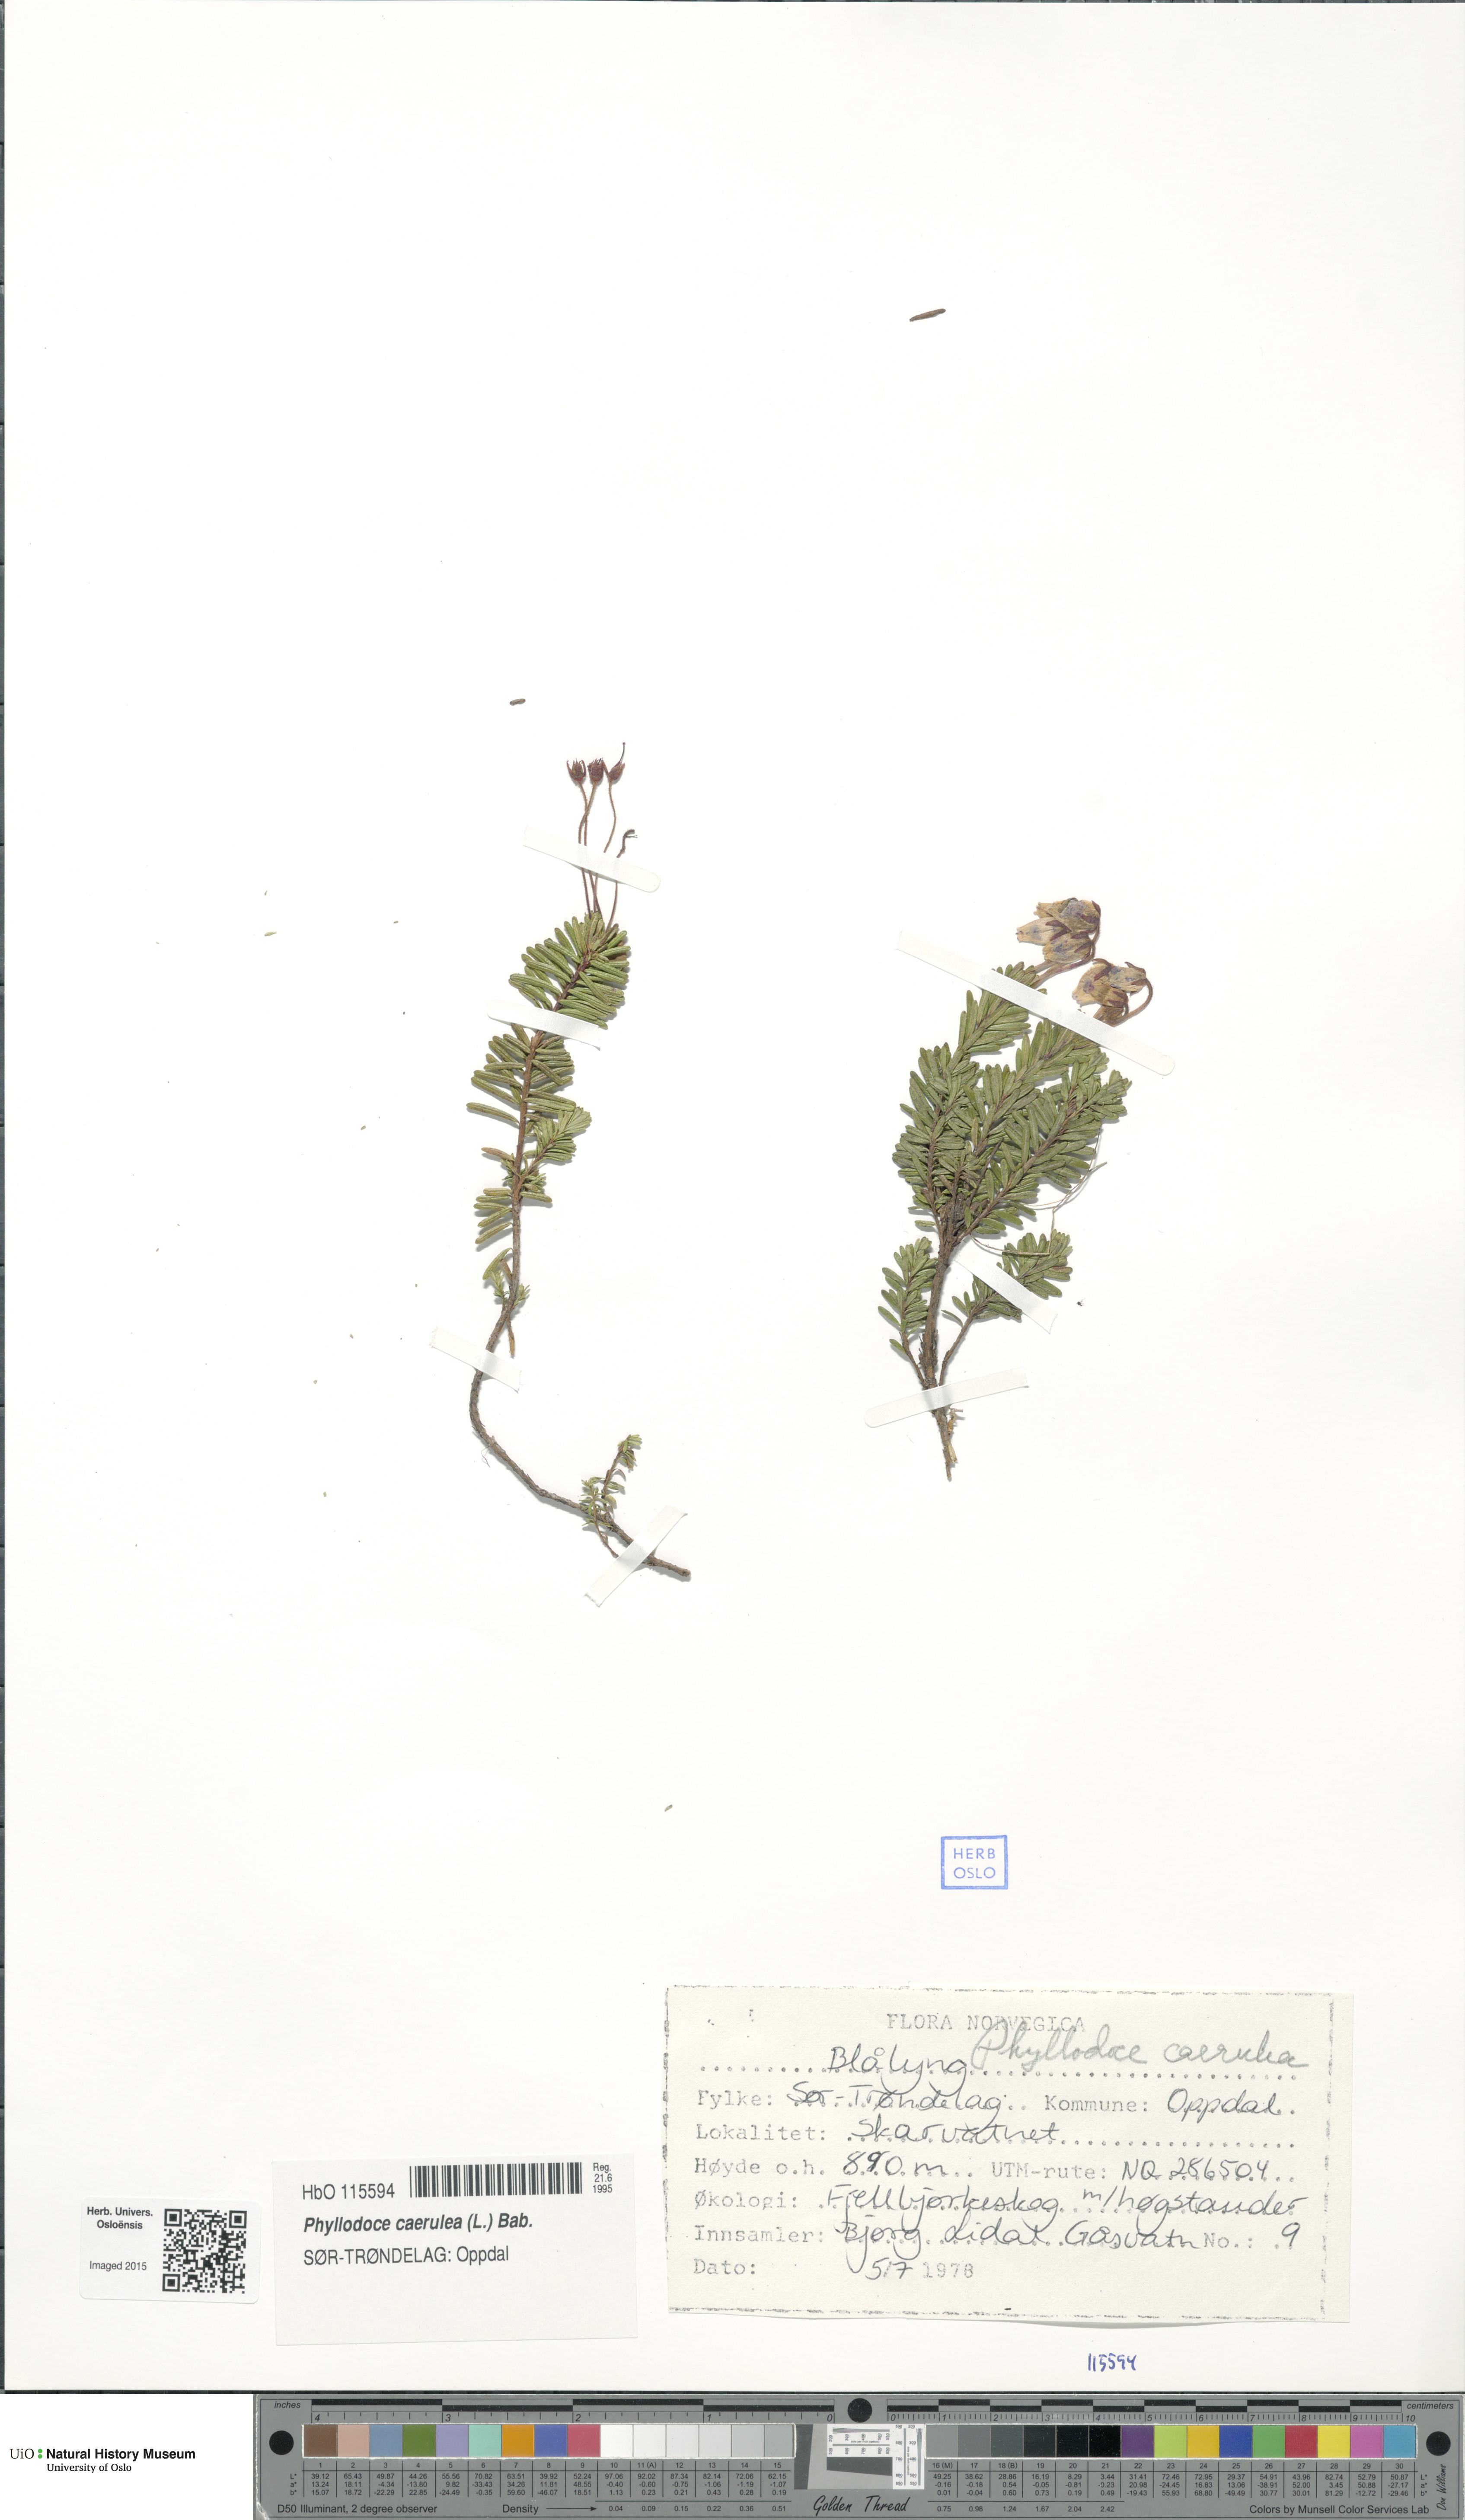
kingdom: Plantae
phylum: Tracheophyta
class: Magnoliopsida
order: Ericales
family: Ericaceae
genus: Phyllodoce
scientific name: Phyllodoce caerulea
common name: Blue heath
